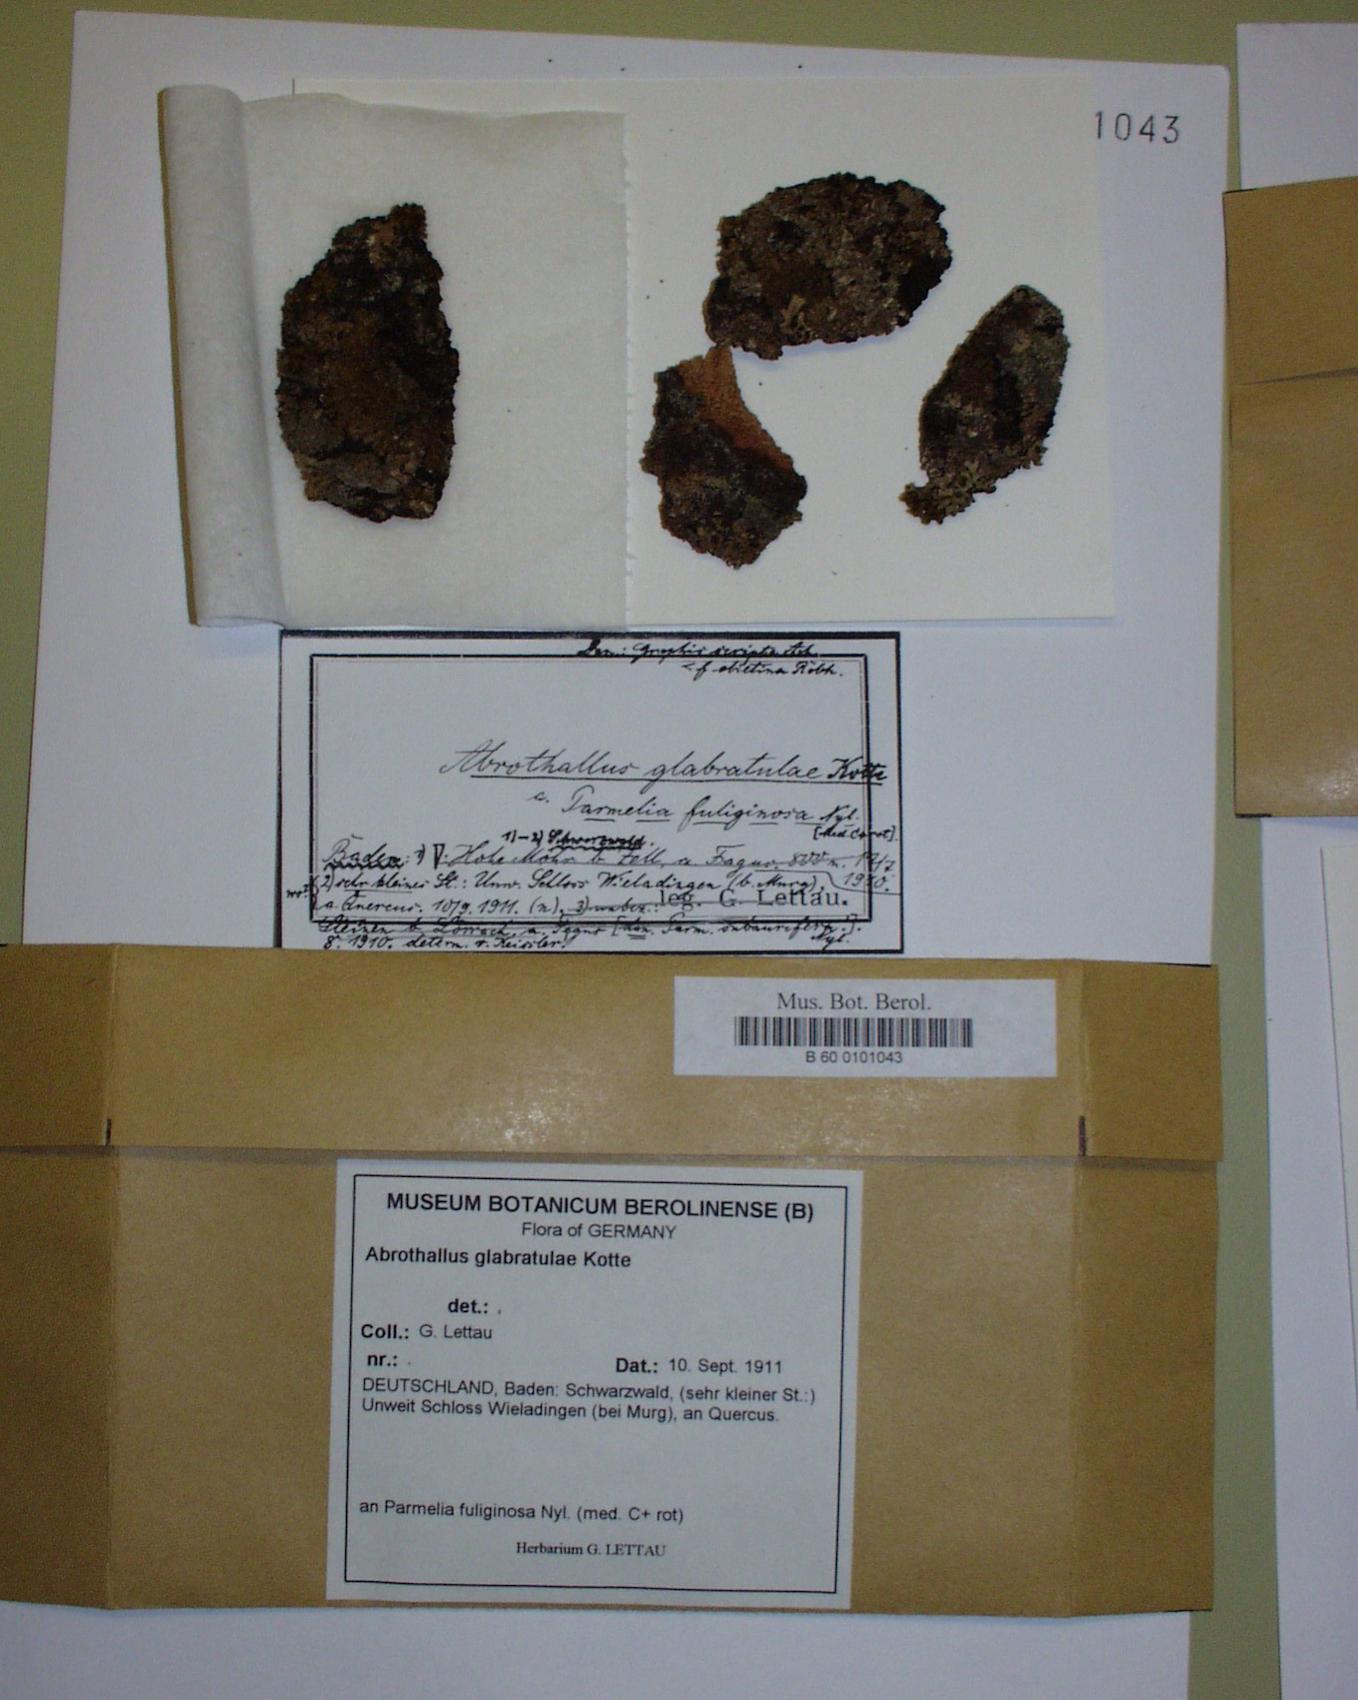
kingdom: Fungi
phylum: Ascomycota
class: Dothideomycetes
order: Abrothallales
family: Abrothallaceae
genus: Abrothallus
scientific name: Abrothallus parmeliarum
